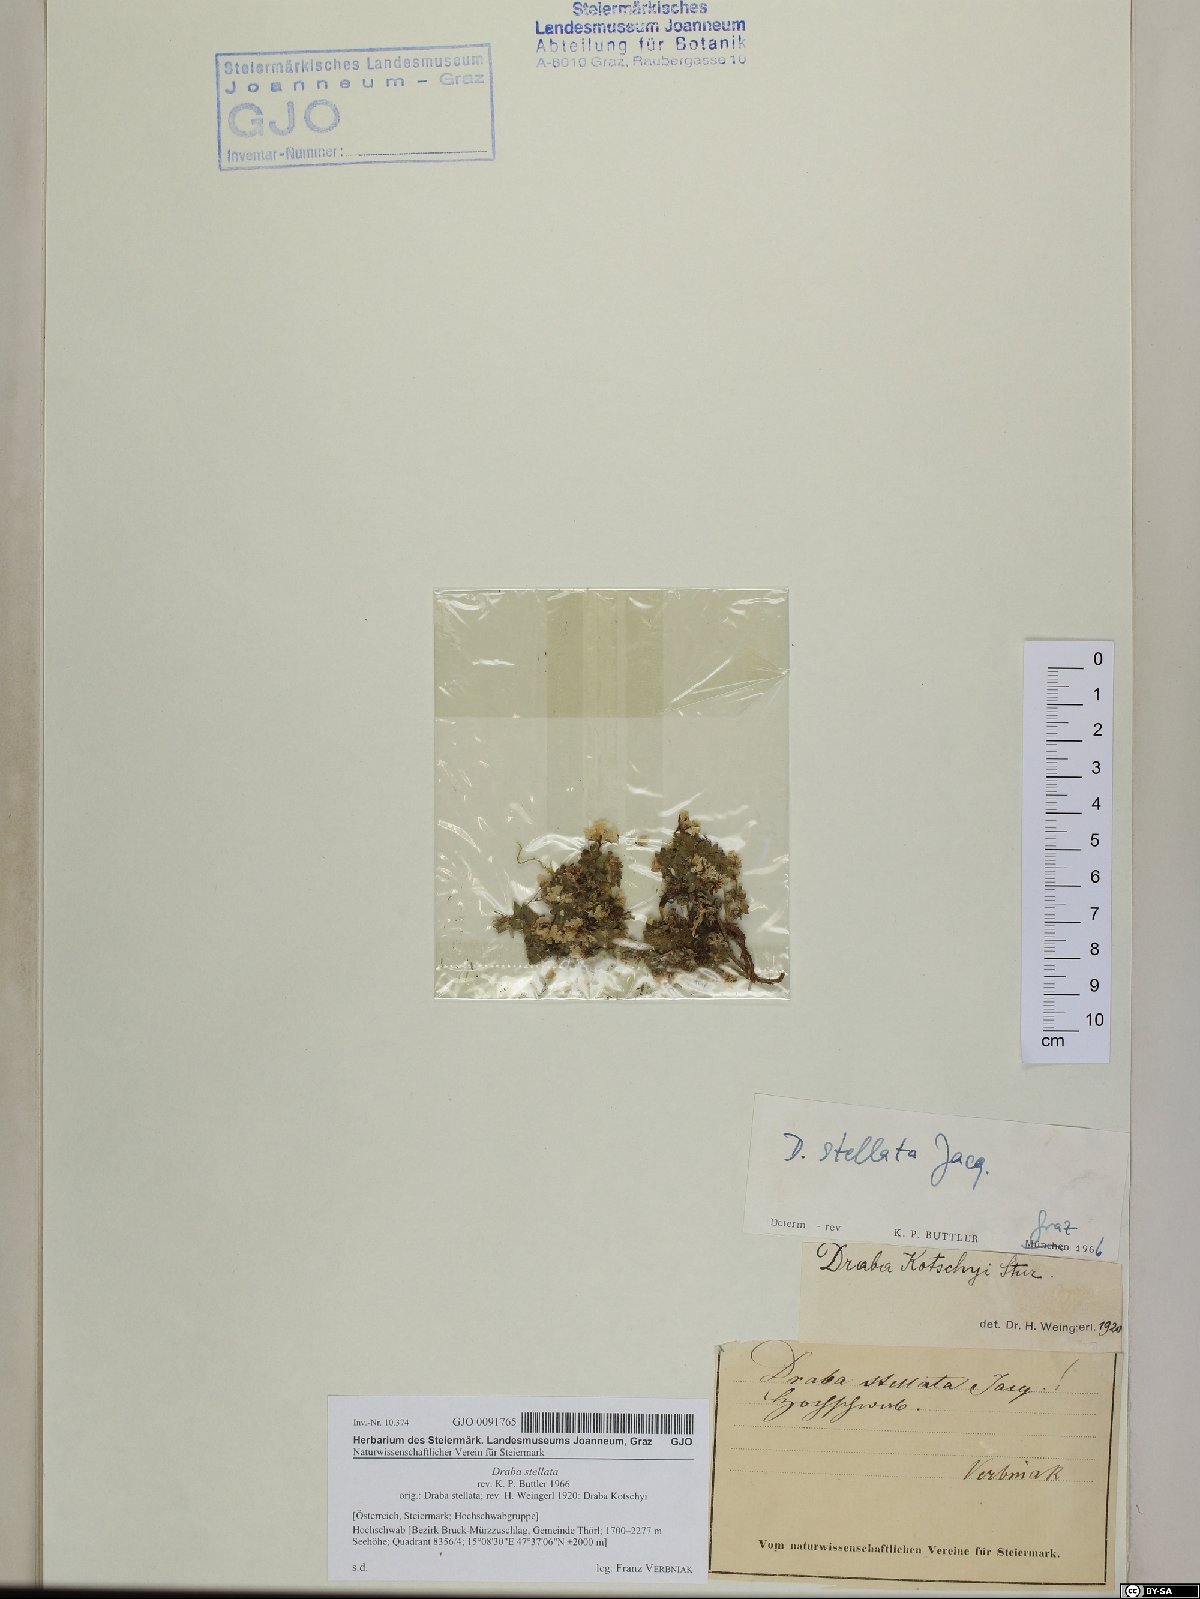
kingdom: Plantae
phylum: Tracheophyta
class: Magnoliopsida
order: Brassicales
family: Brassicaceae
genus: Draba
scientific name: Draba stellata
